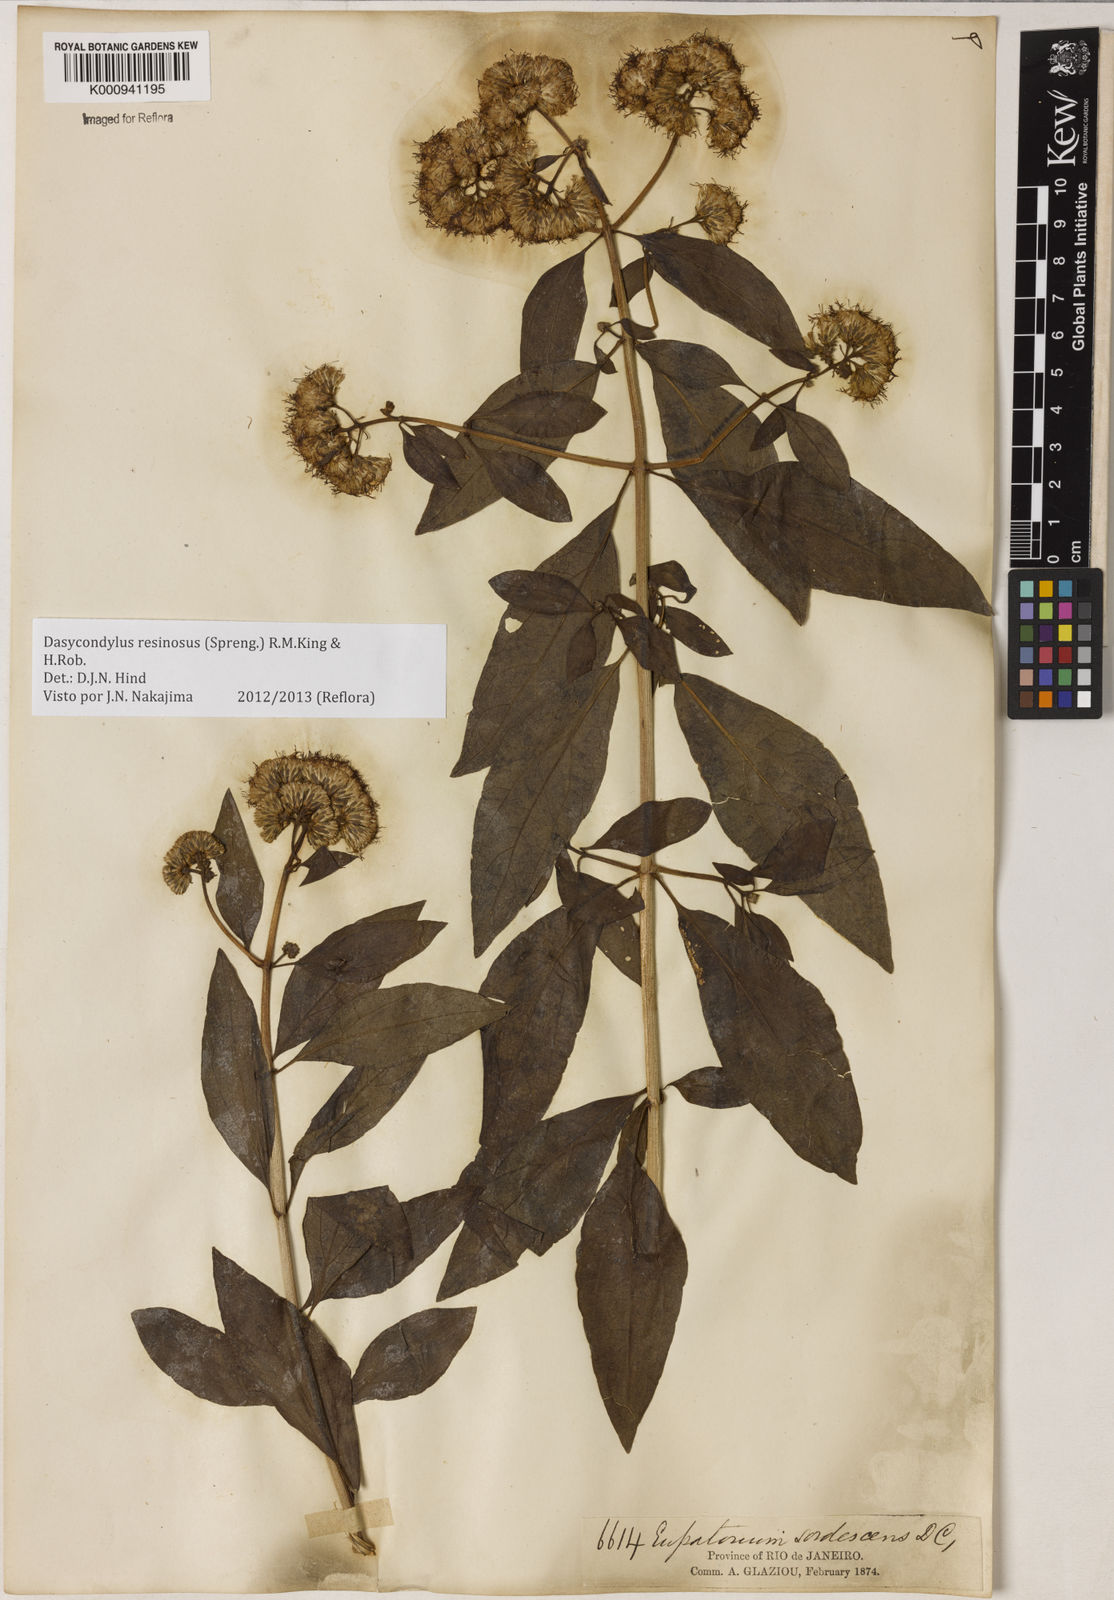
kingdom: Plantae
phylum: Tracheophyta
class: Magnoliopsida
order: Asterales
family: Asteraceae
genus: Dasycondylus
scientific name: Dasycondylus resinosus
